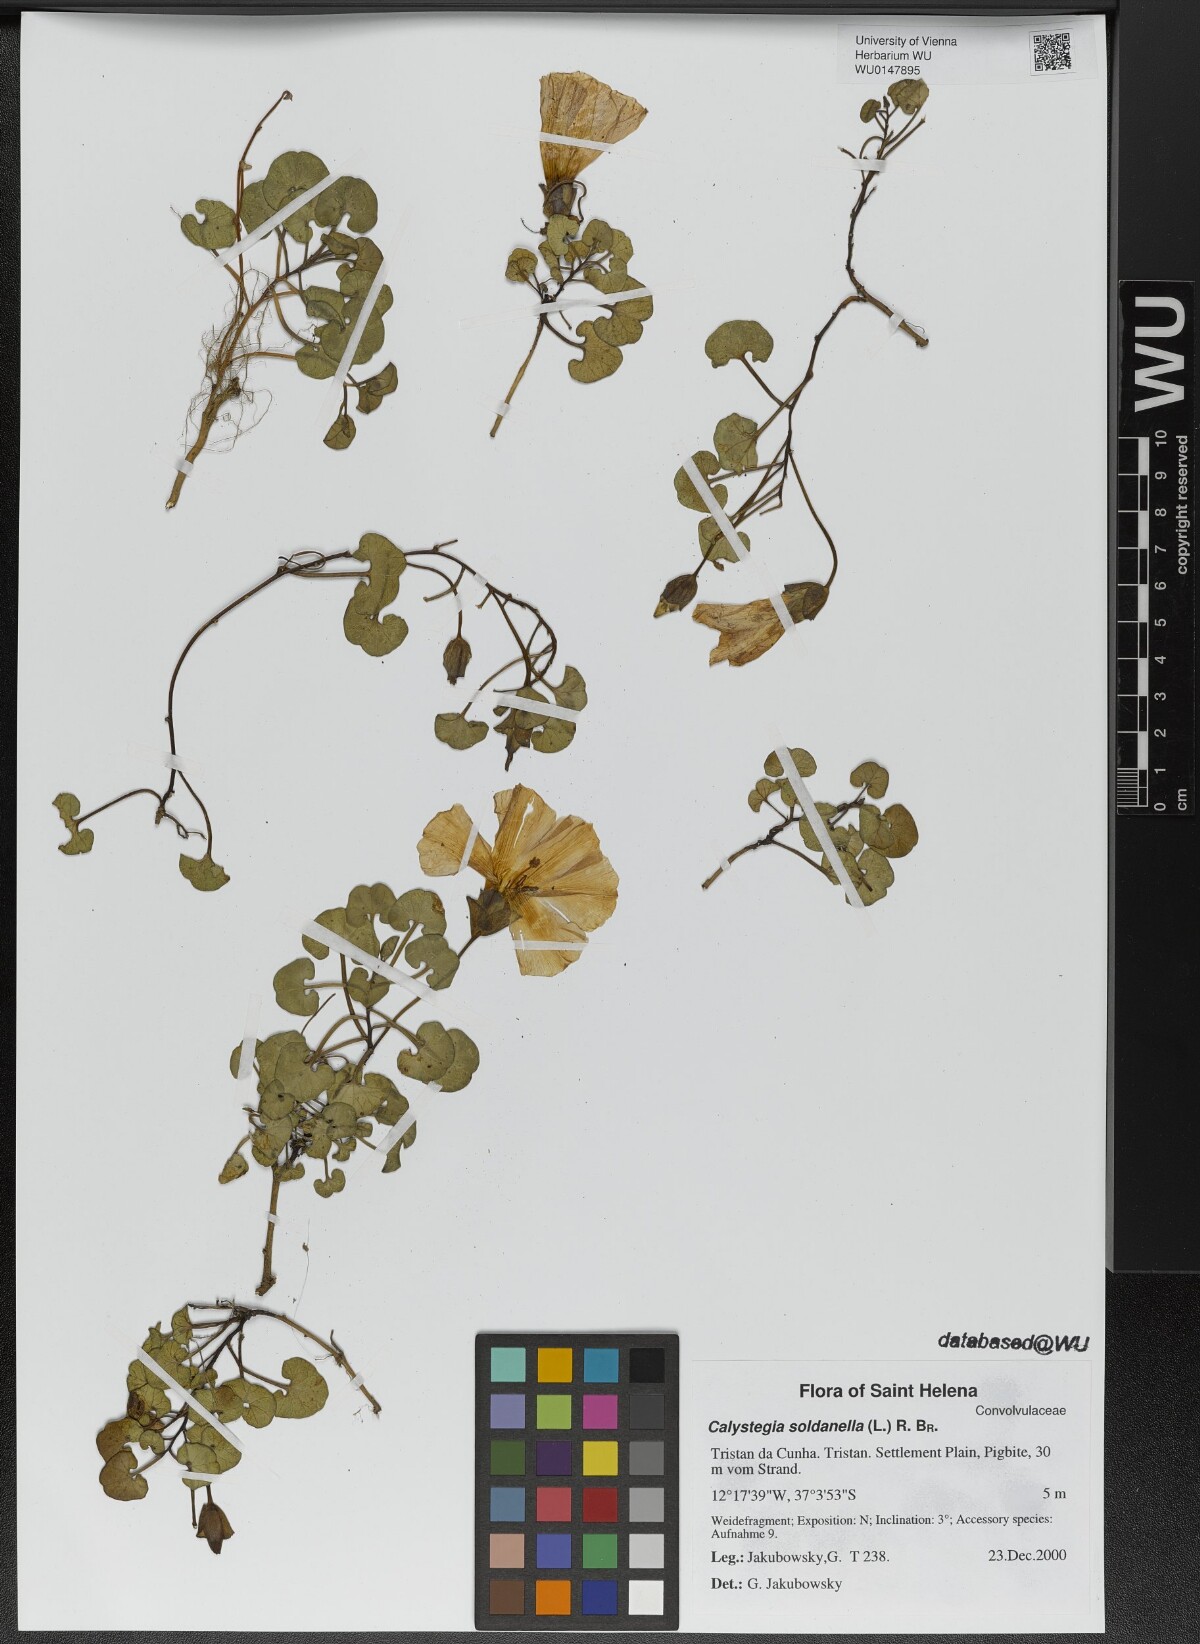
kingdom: Plantae
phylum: Tracheophyta
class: Magnoliopsida
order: Solanales
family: Convolvulaceae
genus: Calystegia
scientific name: Calystegia soldanella
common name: Sea bindweed
